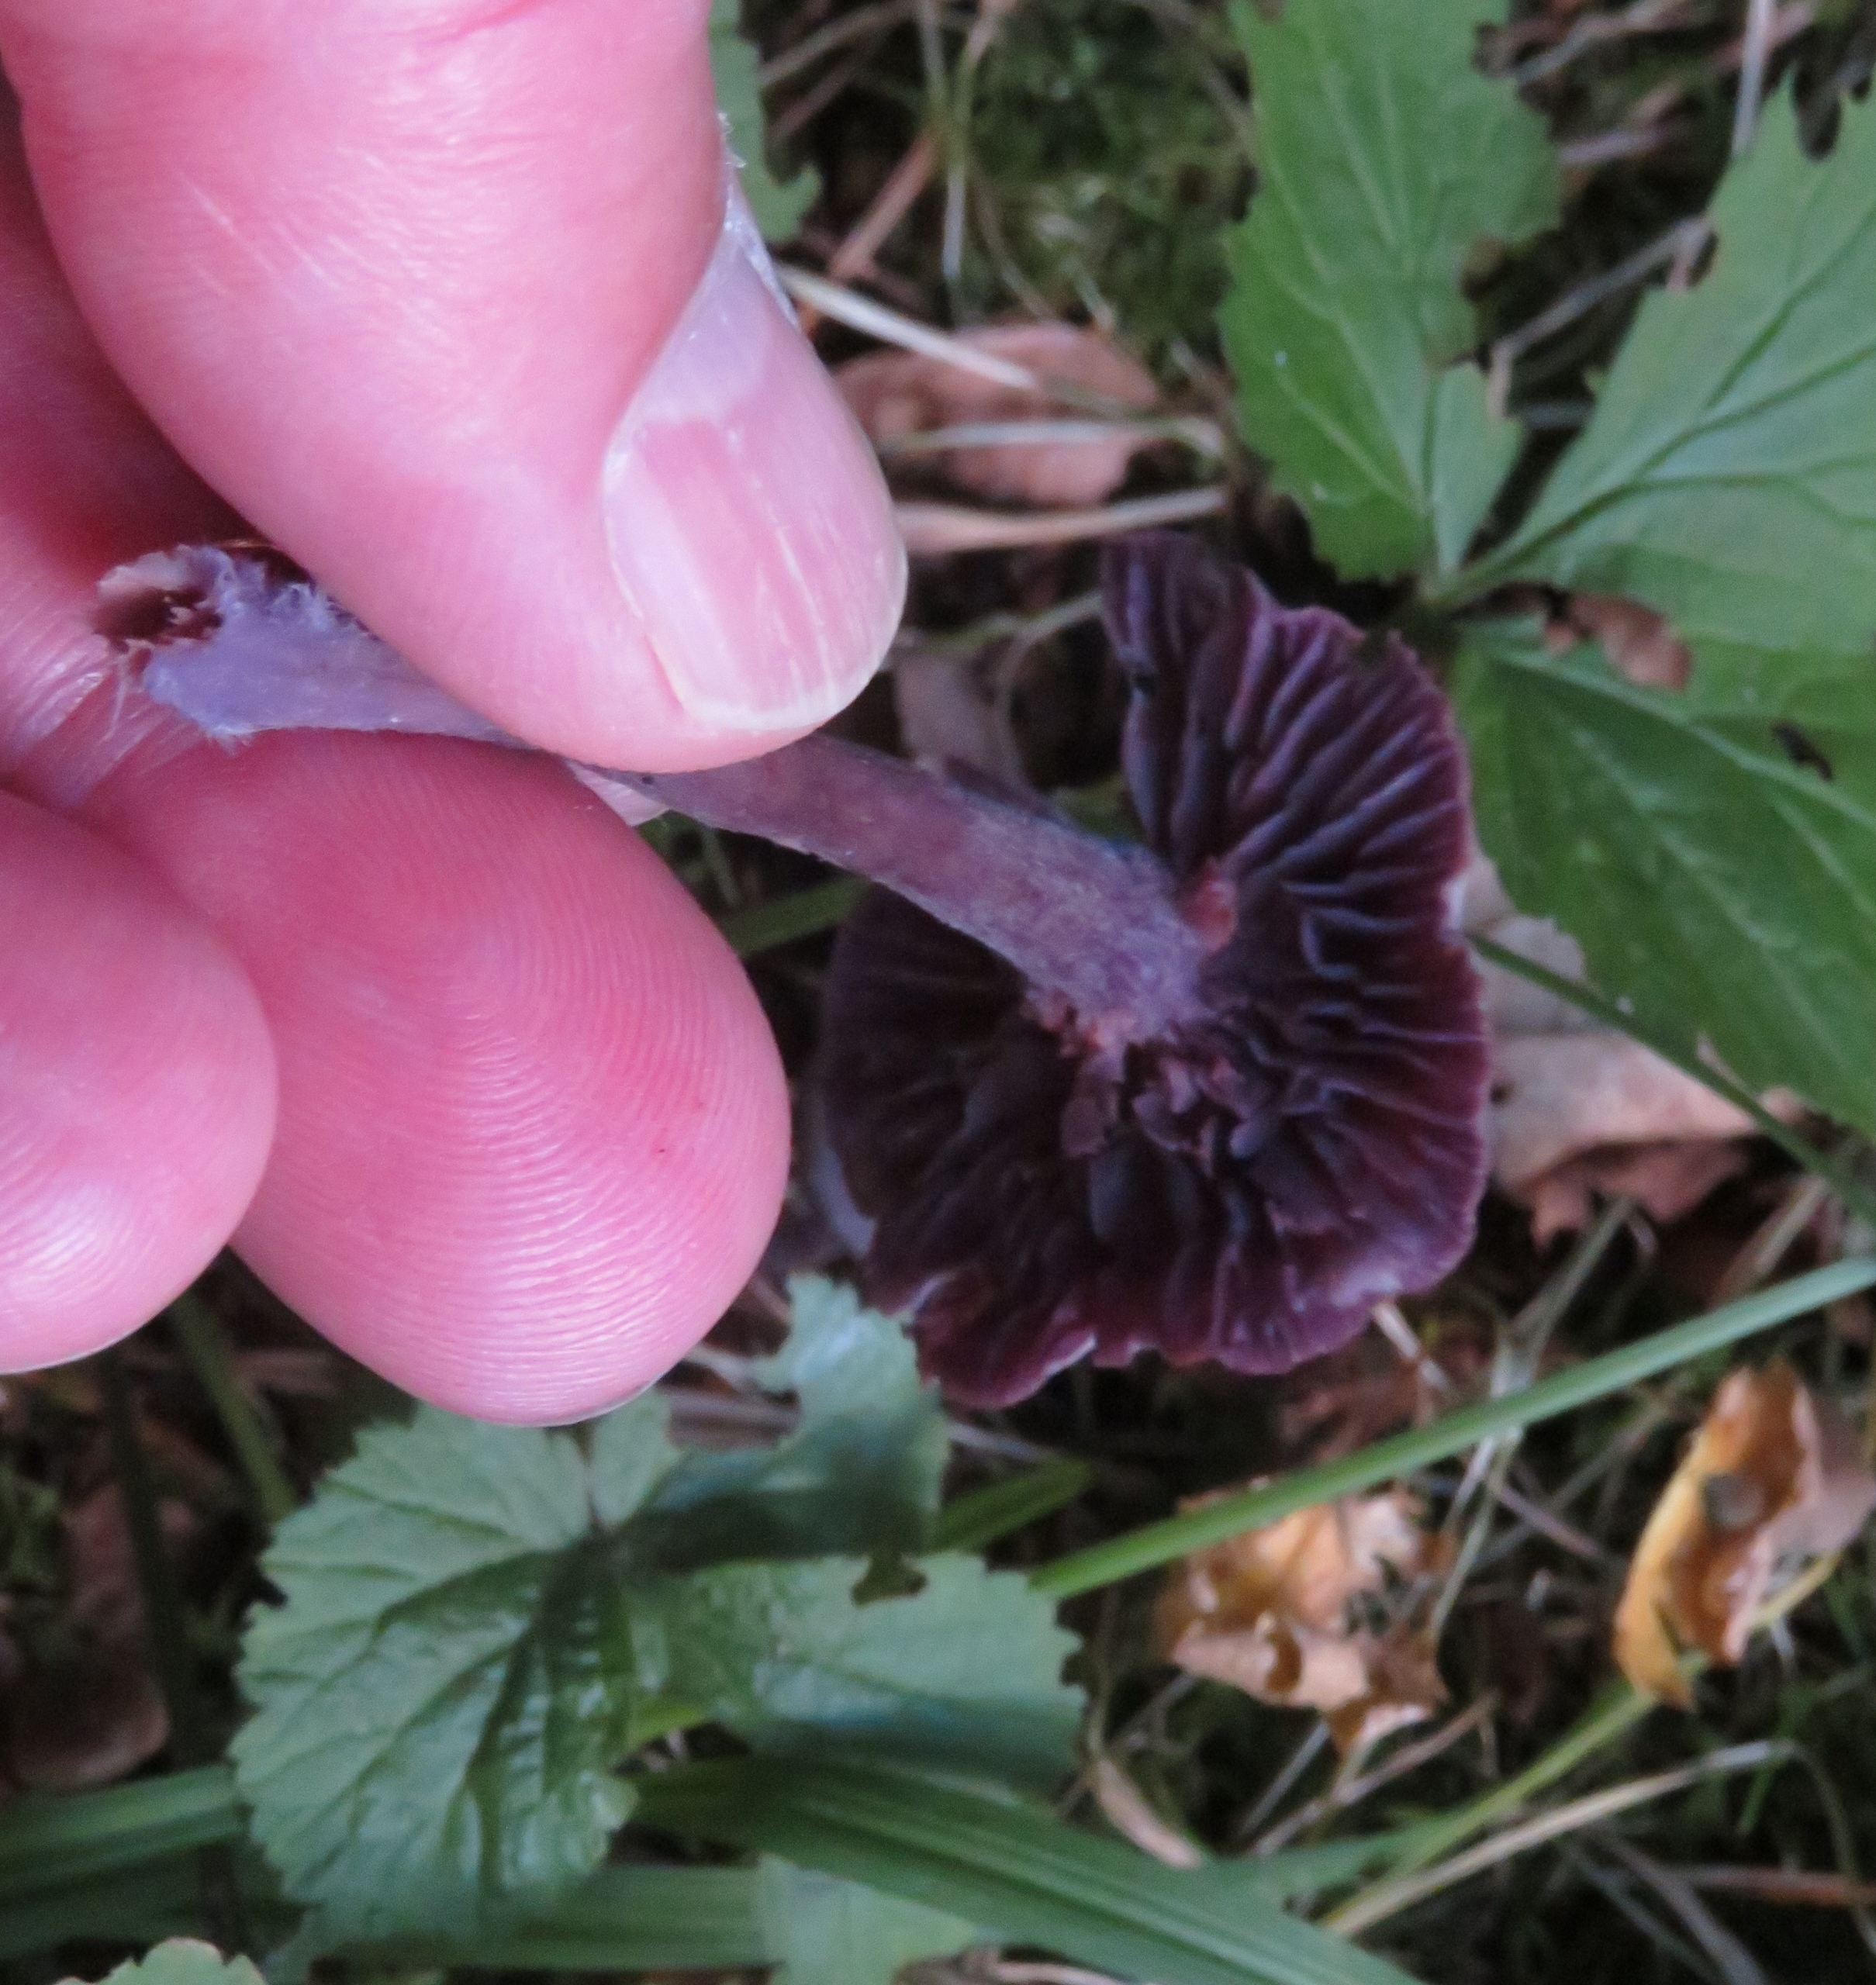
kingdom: Fungi
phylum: Basidiomycota
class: Agaricomycetes
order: Agaricales
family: Hydnangiaceae
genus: Laccaria
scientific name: Laccaria amethystina
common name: Violet ametysthat
